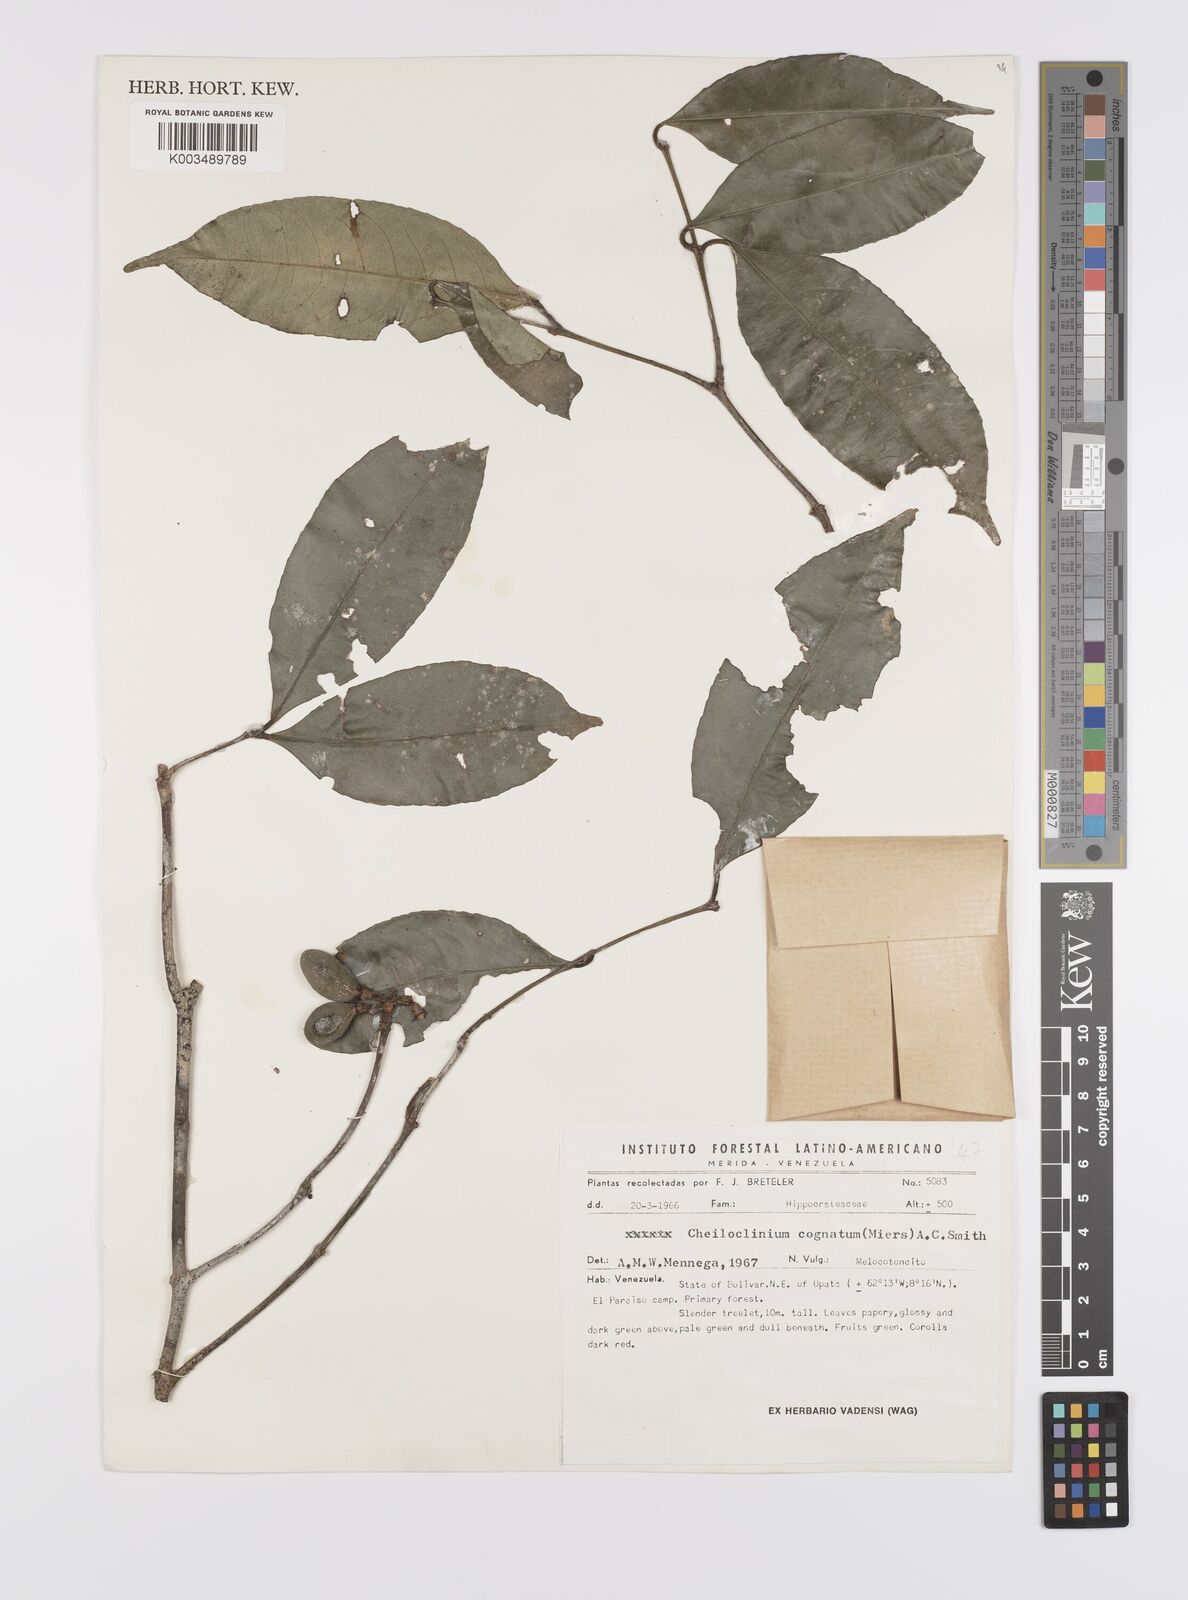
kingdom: Plantae
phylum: Tracheophyta
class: Magnoliopsida
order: Celastrales
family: Celastraceae
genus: Cheiloclinium
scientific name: Cheiloclinium cognatum
